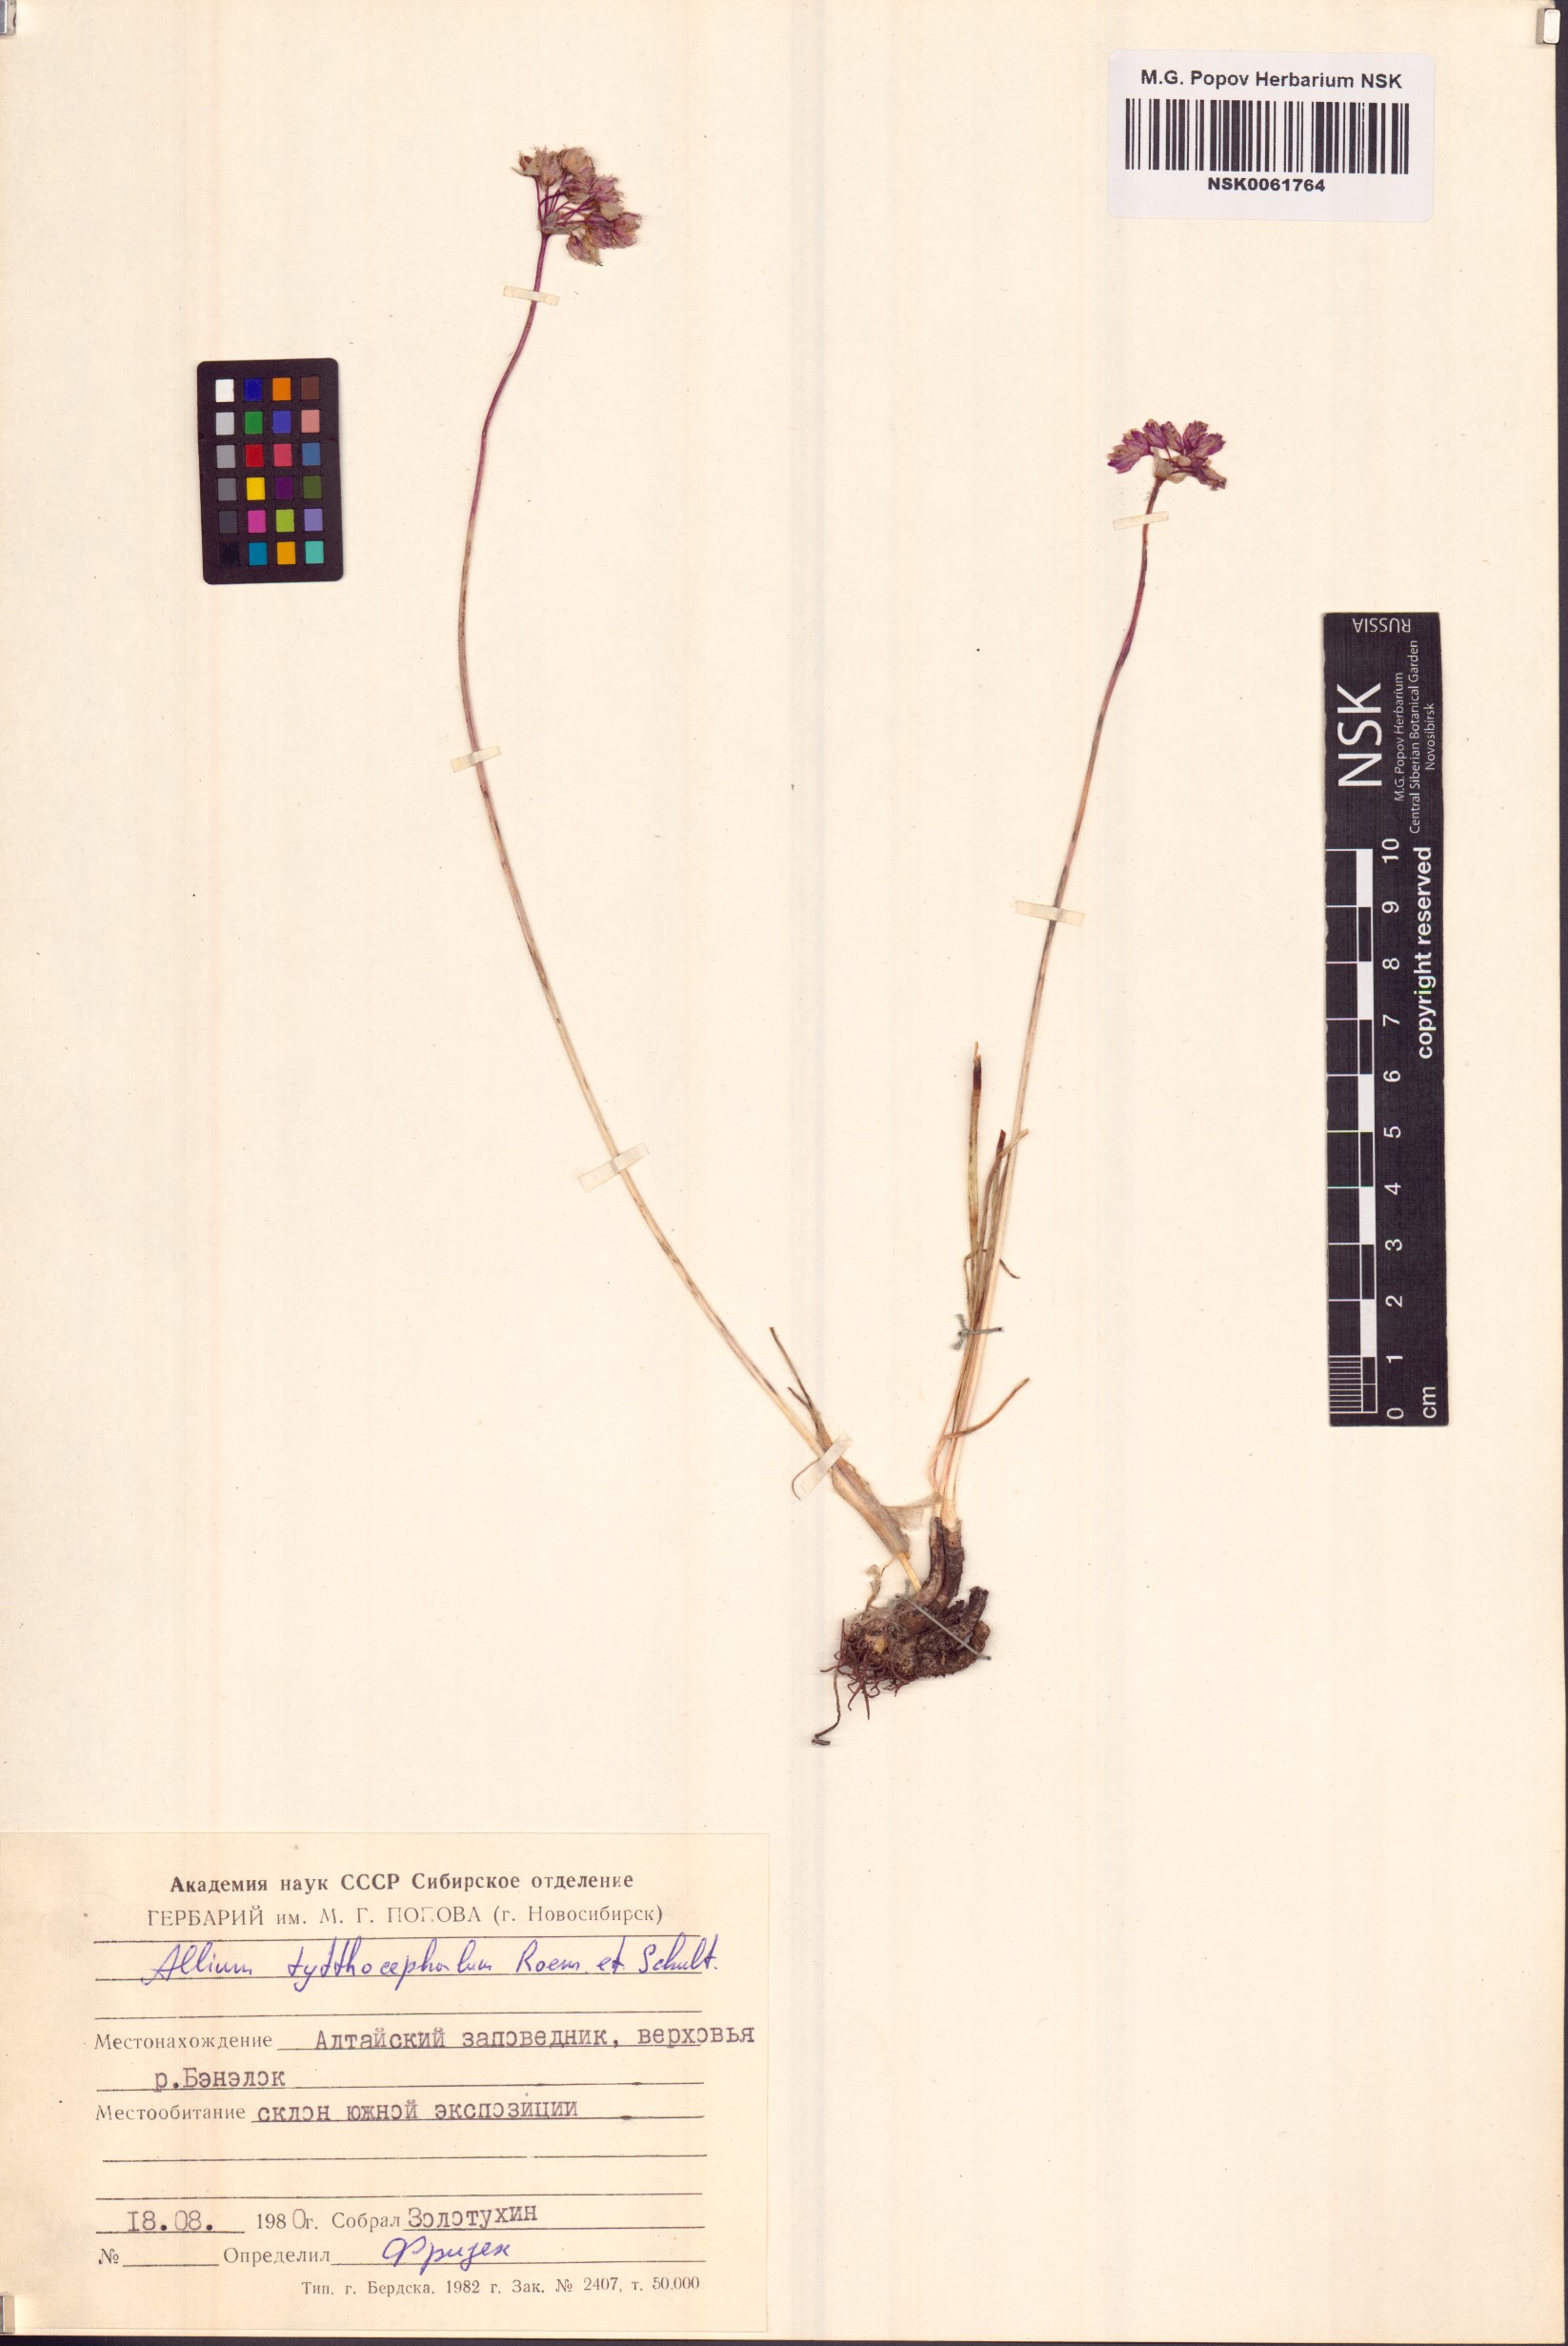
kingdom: Plantae
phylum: Tracheophyta
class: Liliopsida
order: Asparagales
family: Amaryllidaceae
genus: Allium
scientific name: Allium tytthocephalum
